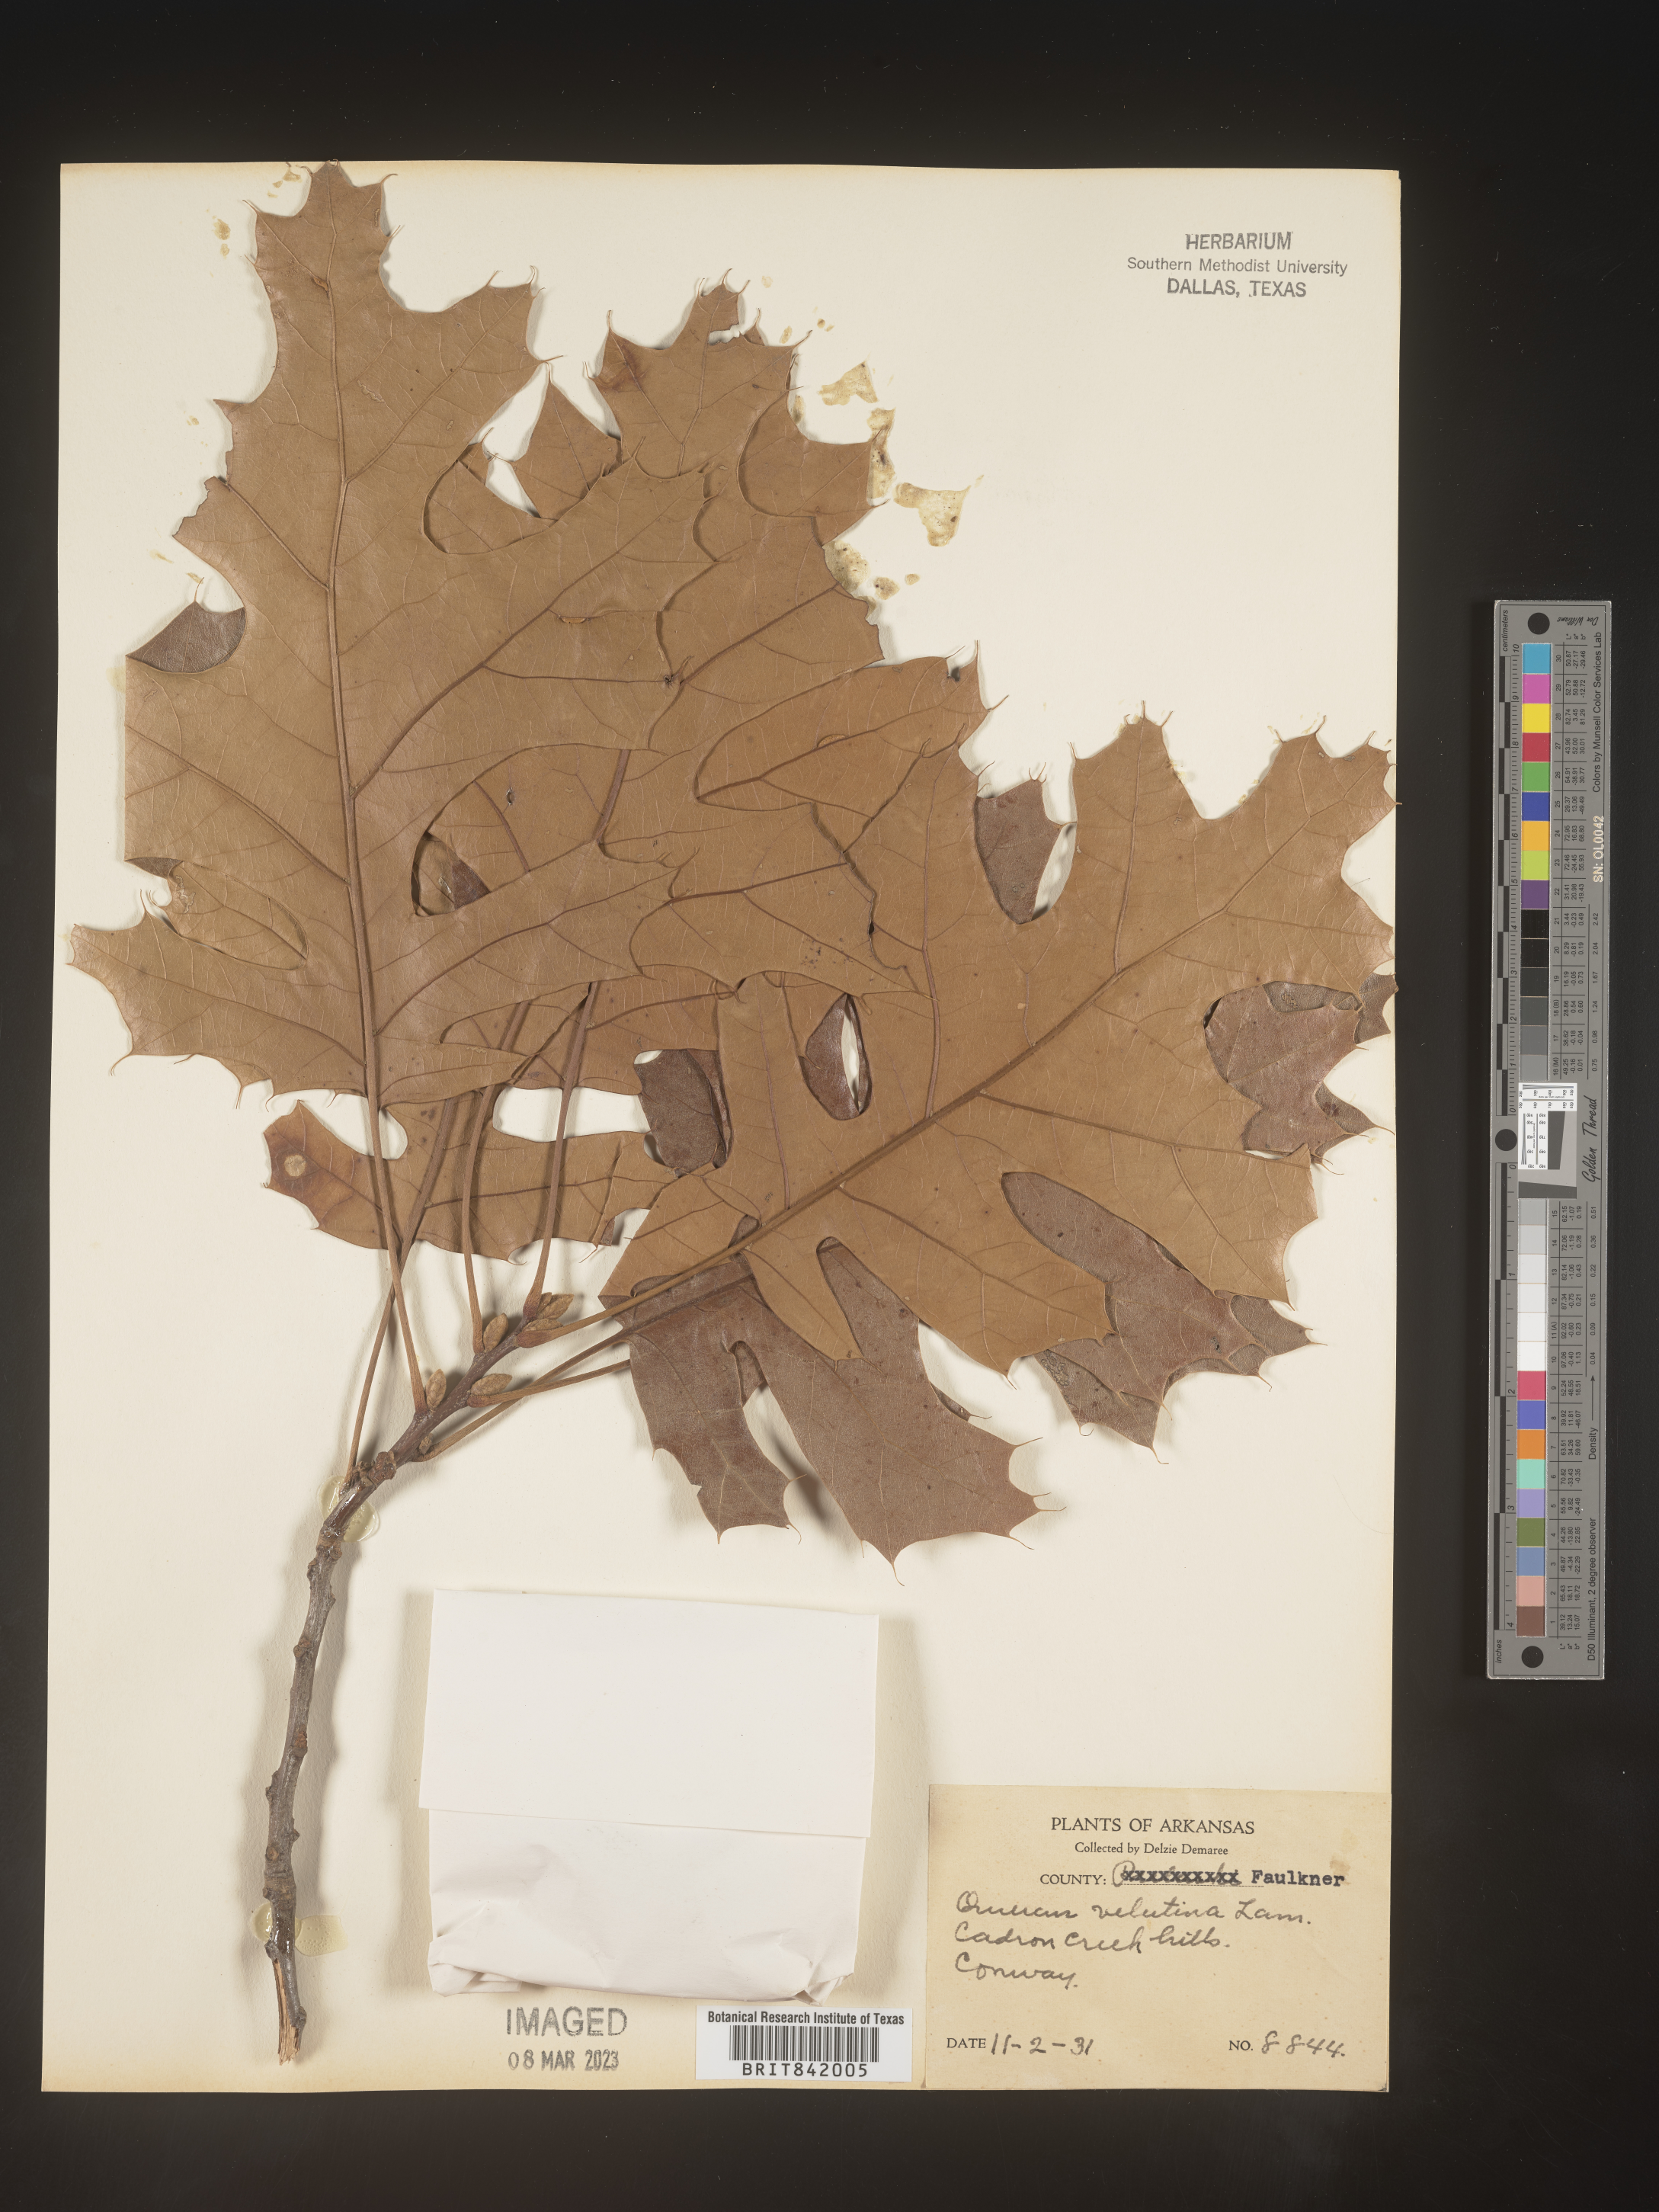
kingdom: Plantae
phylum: Tracheophyta
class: Magnoliopsida
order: Fagales
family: Fagaceae
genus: Quercus
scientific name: Quercus velutina
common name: Black oak
